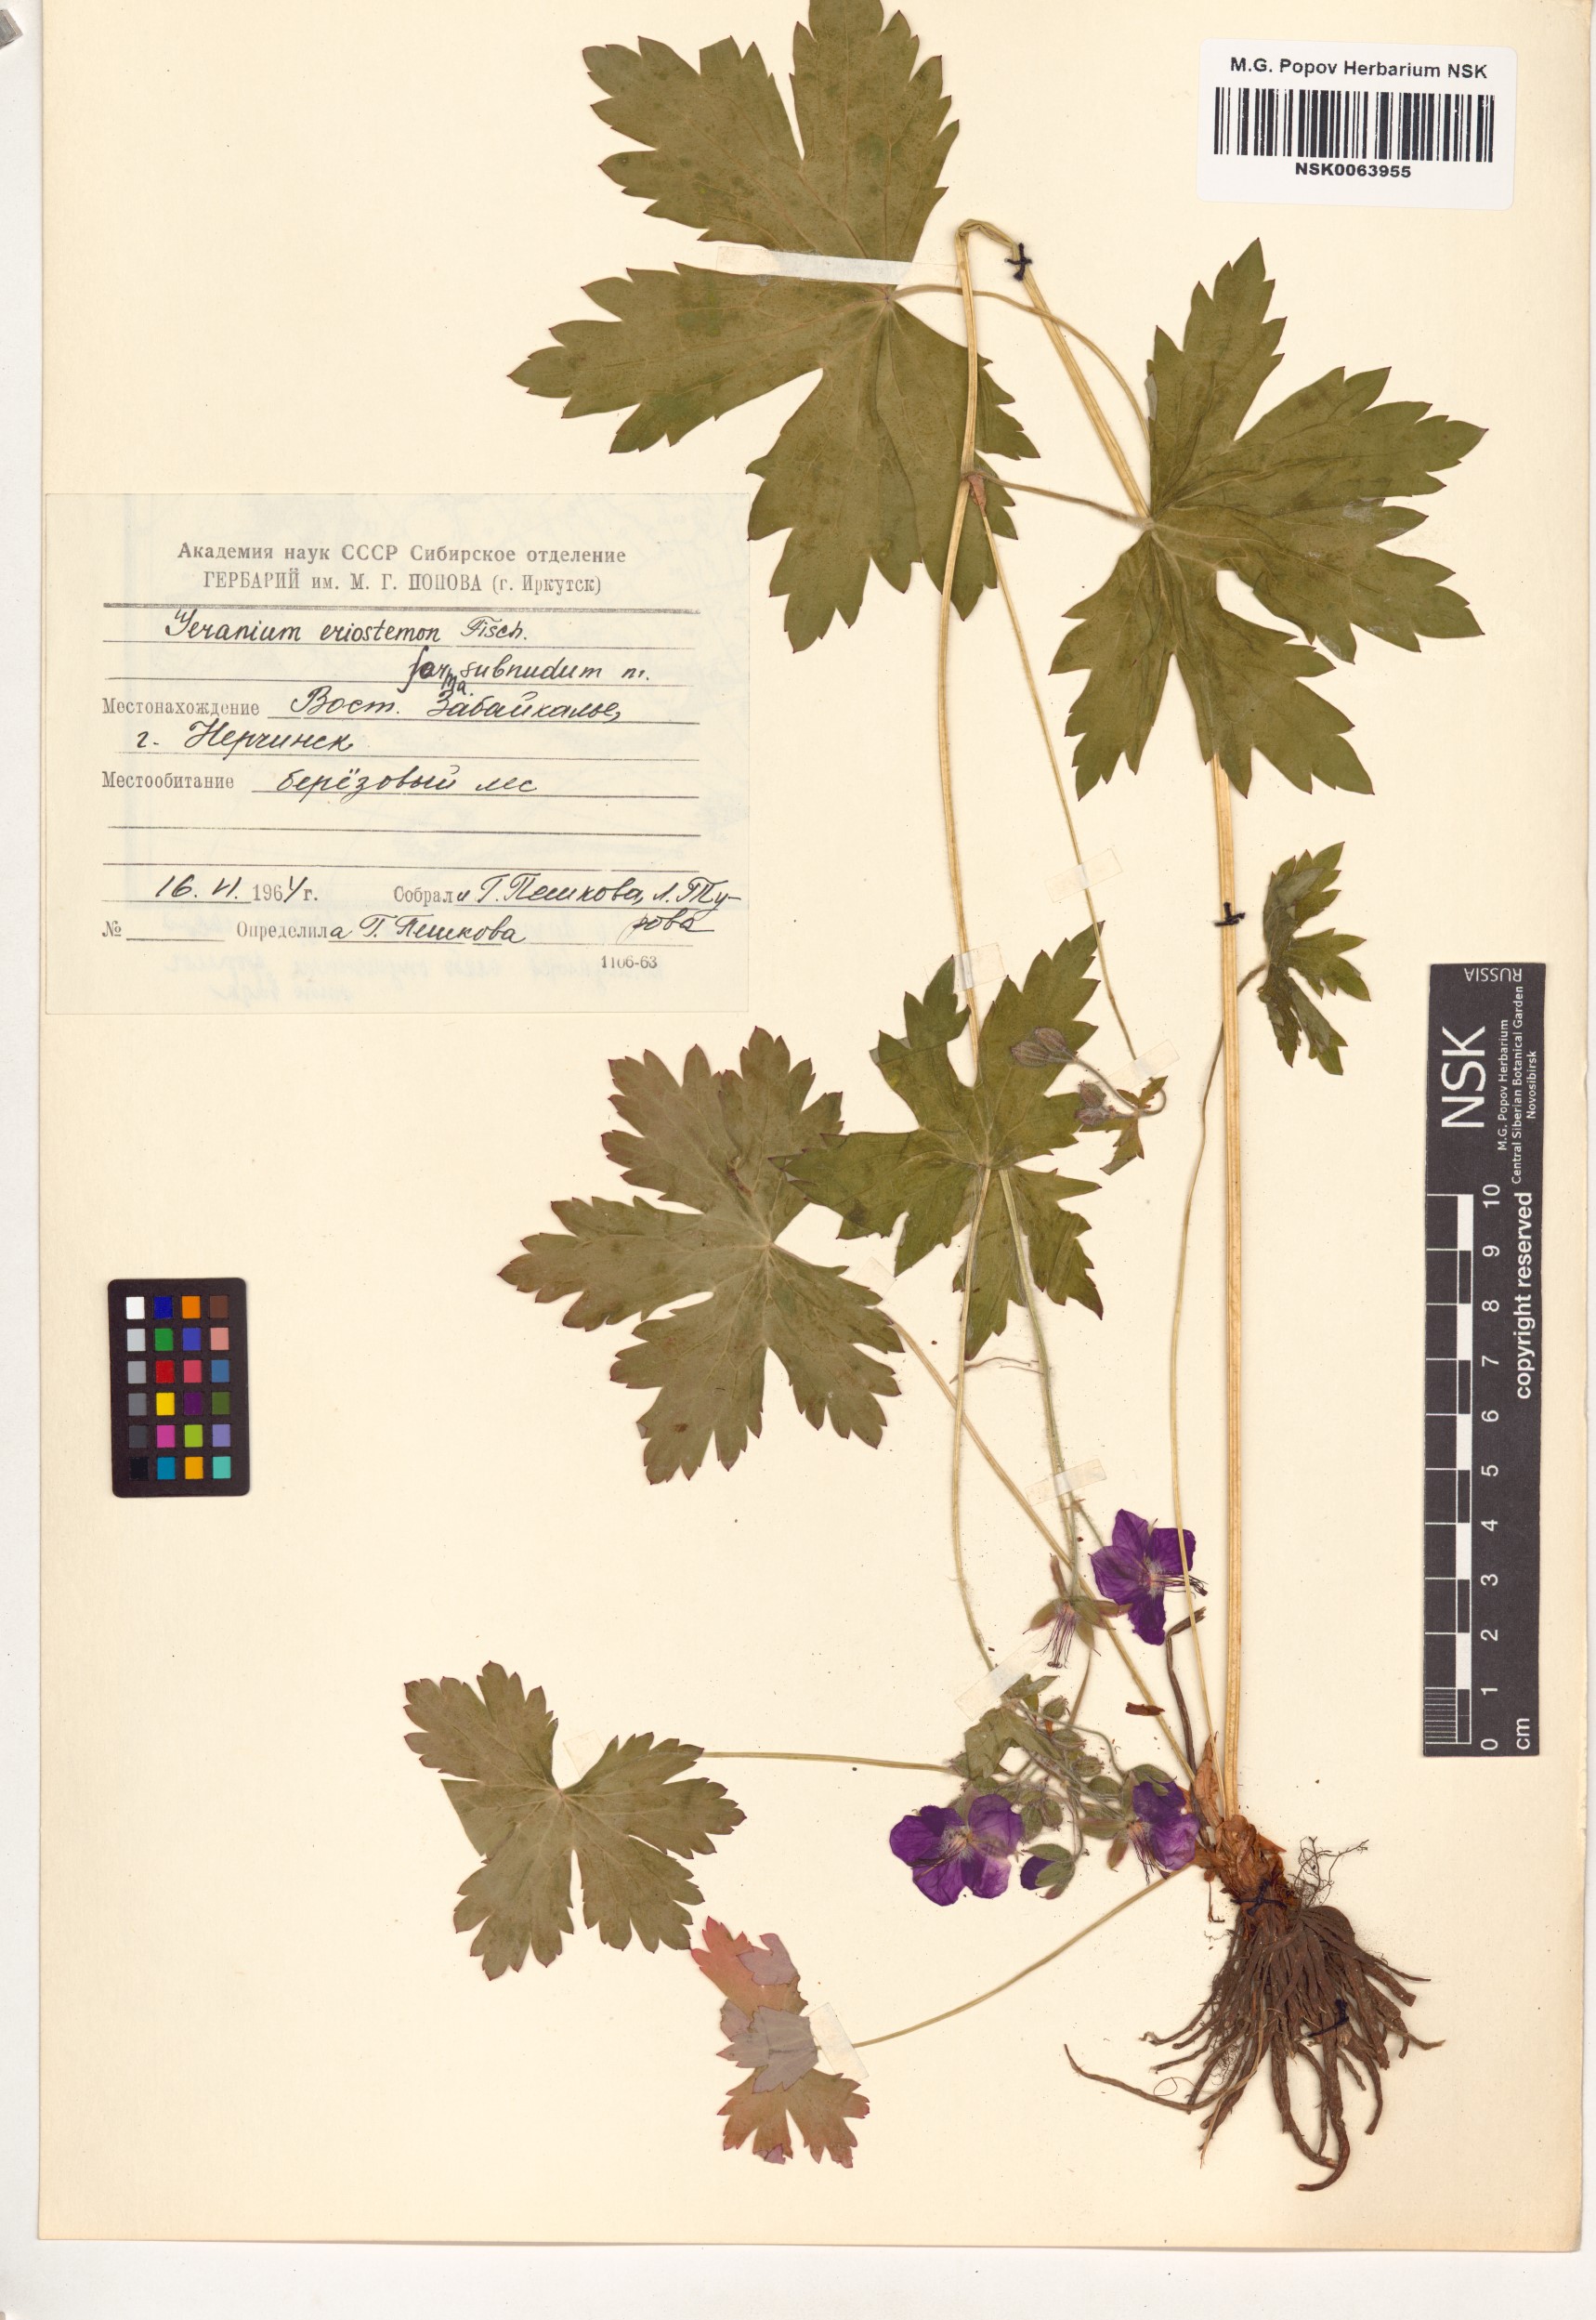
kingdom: Plantae
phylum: Tracheophyta
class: Magnoliopsida
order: Geraniales
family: Geraniaceae
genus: Geranium
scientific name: Geranium platyanthum
